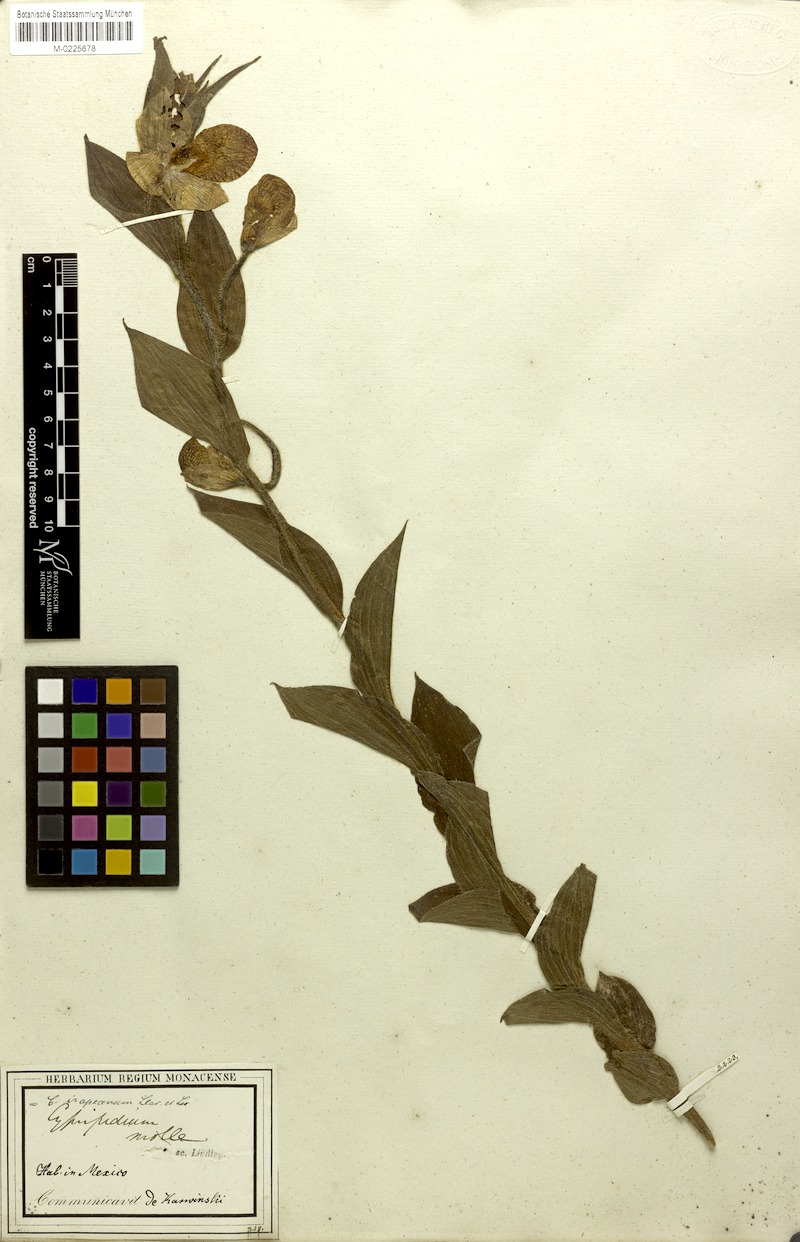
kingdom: Plantae
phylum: Tracheophyta
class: Liliopsida
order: Asparagales
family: Orchidaceae
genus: Cypripedium
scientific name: Cypripedium irapeanum
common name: Irapeao cypripedium
